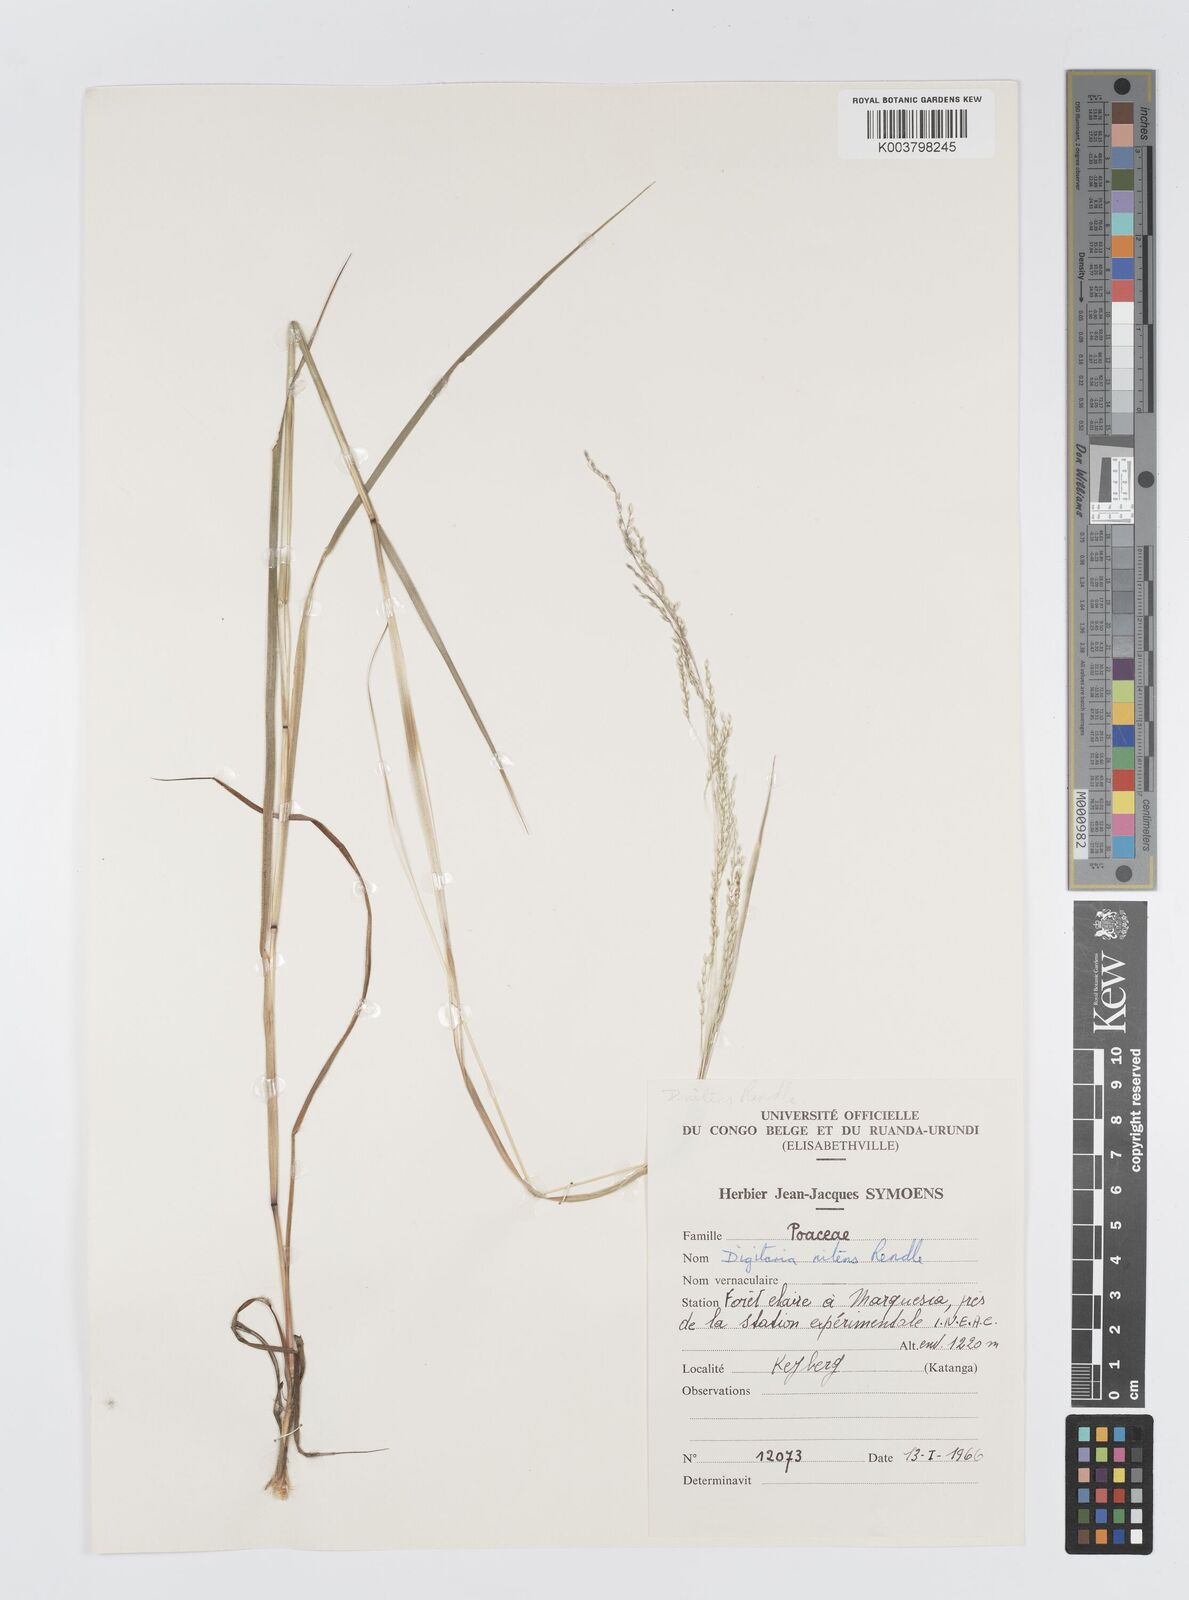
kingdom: Plantae
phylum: Tracheophyta
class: Liliopsida
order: Poales
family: Poaceae
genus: Digitaria
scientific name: Digitaria flaccida
